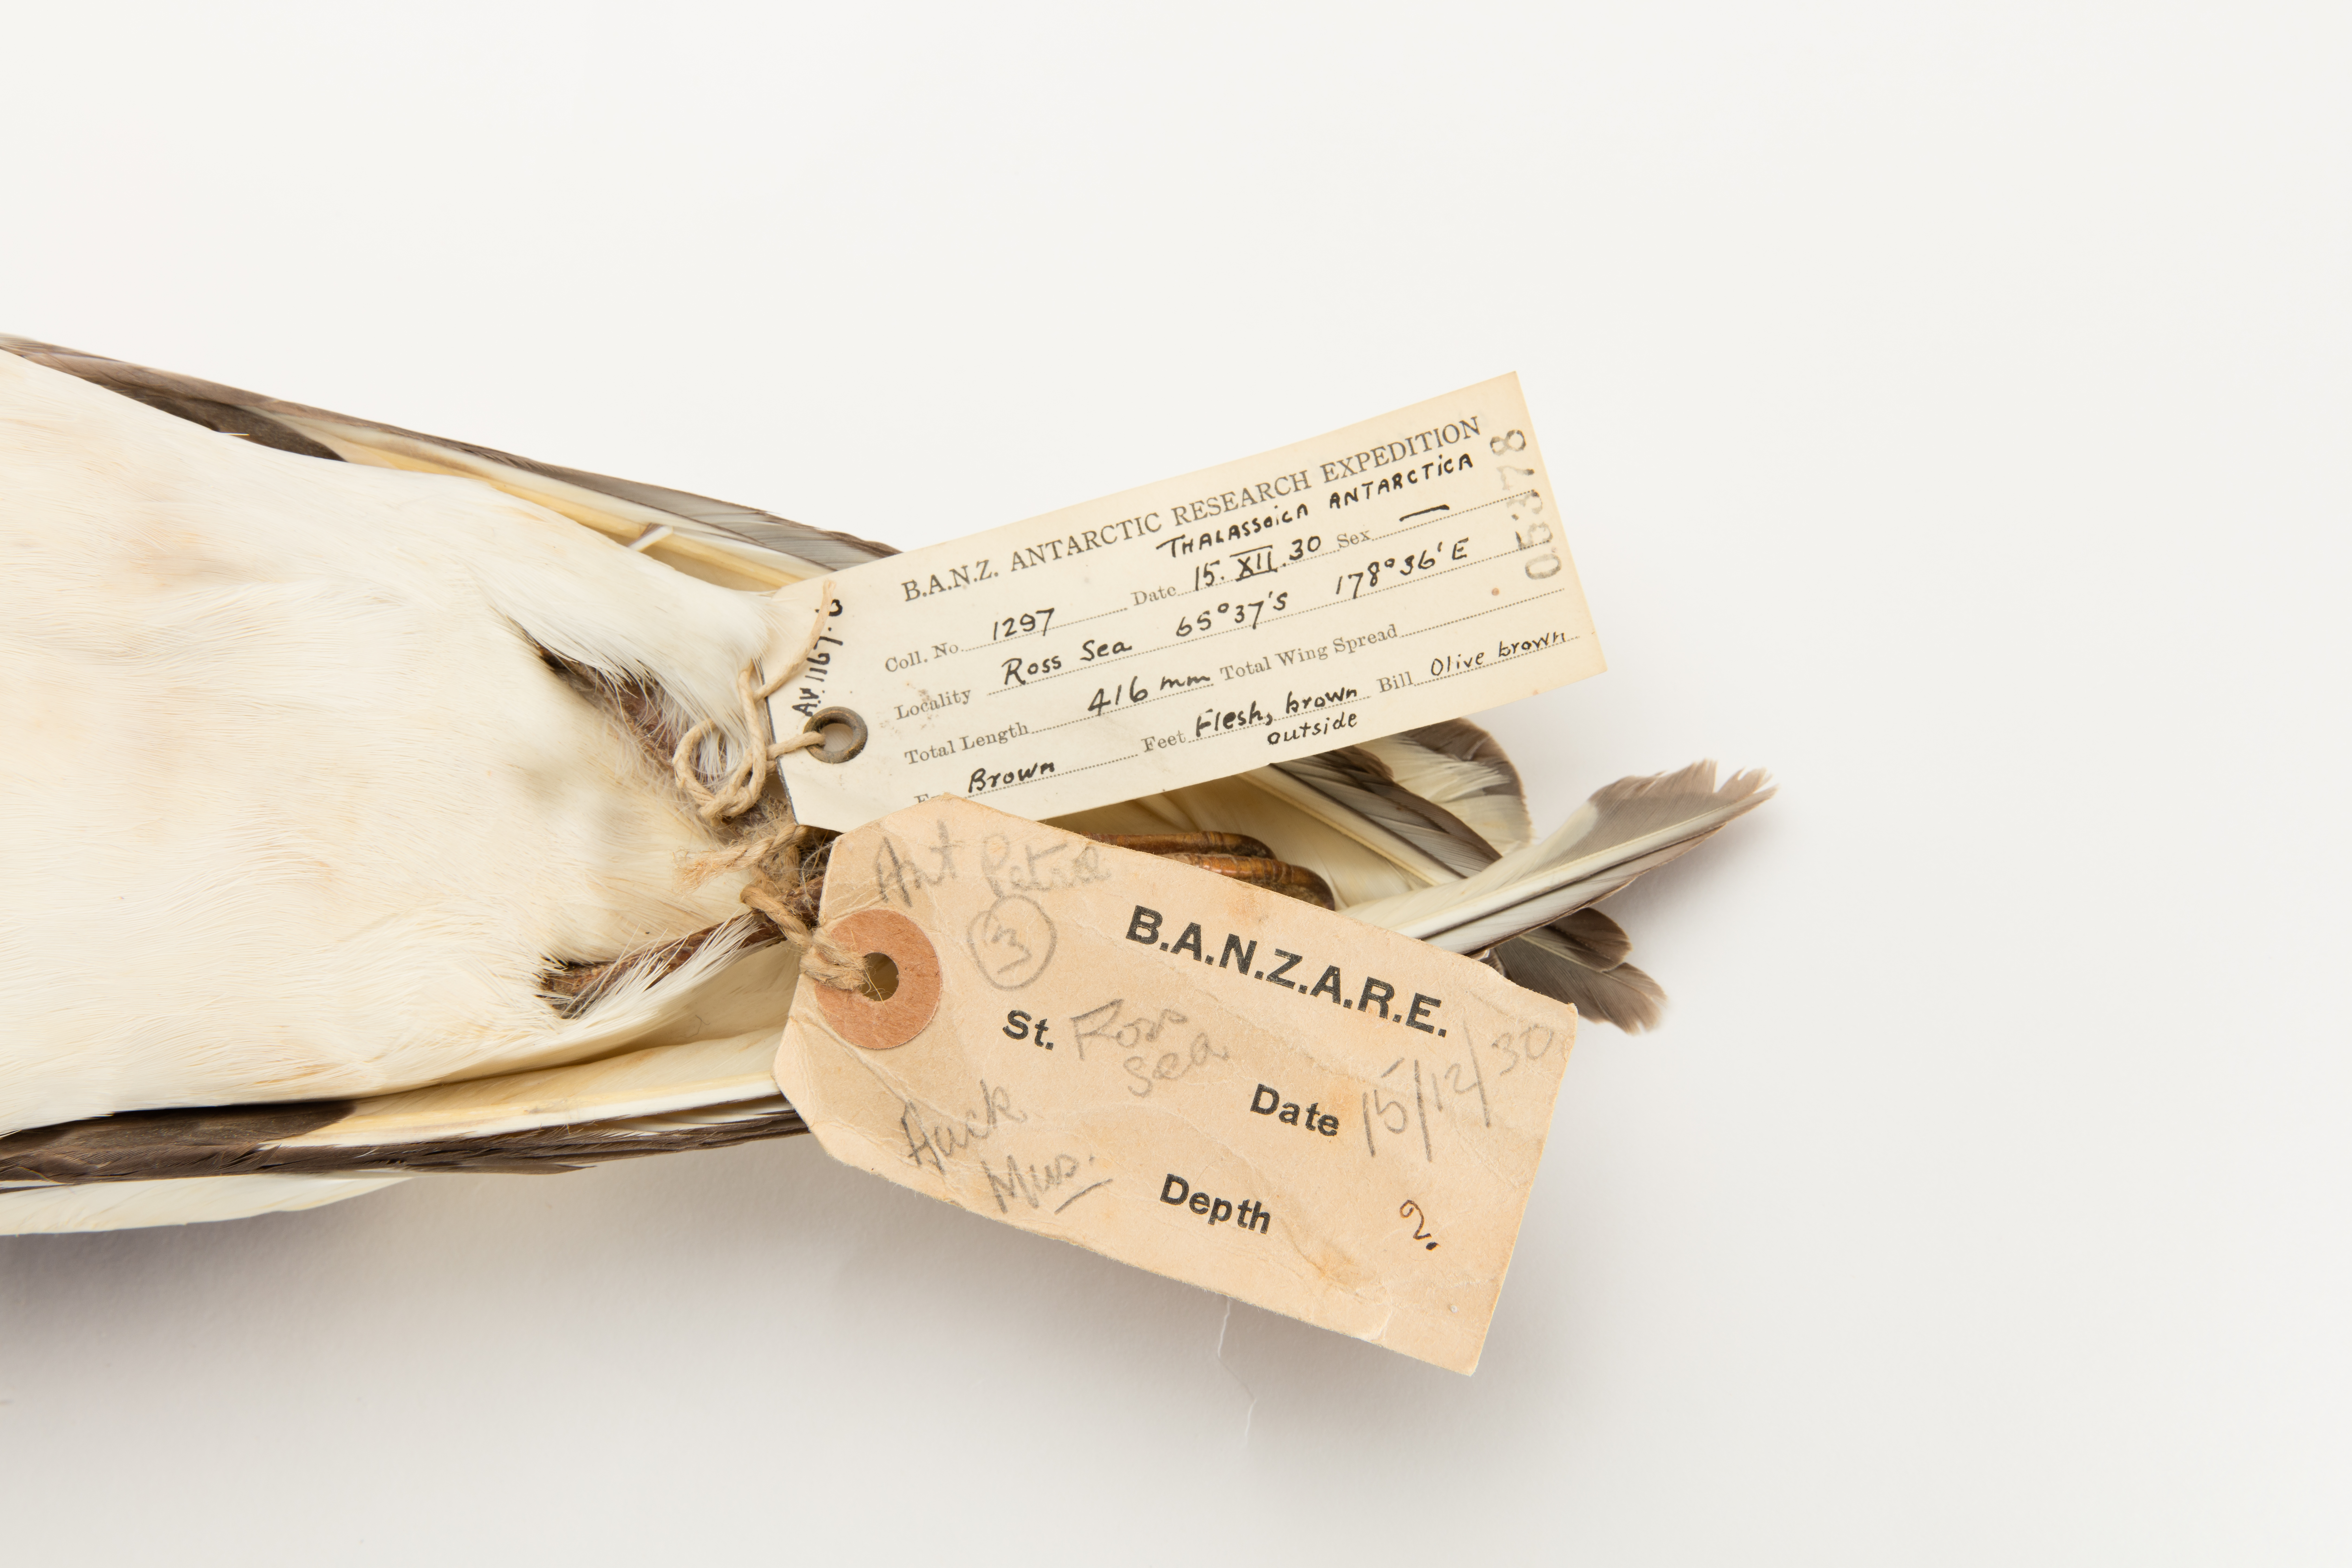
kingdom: Animalia
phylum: Chordata
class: Aves
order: Procellariiformes
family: Procellariidae
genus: Thalassoica
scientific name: Thalassoica antarctica
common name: Antarctic petrel
